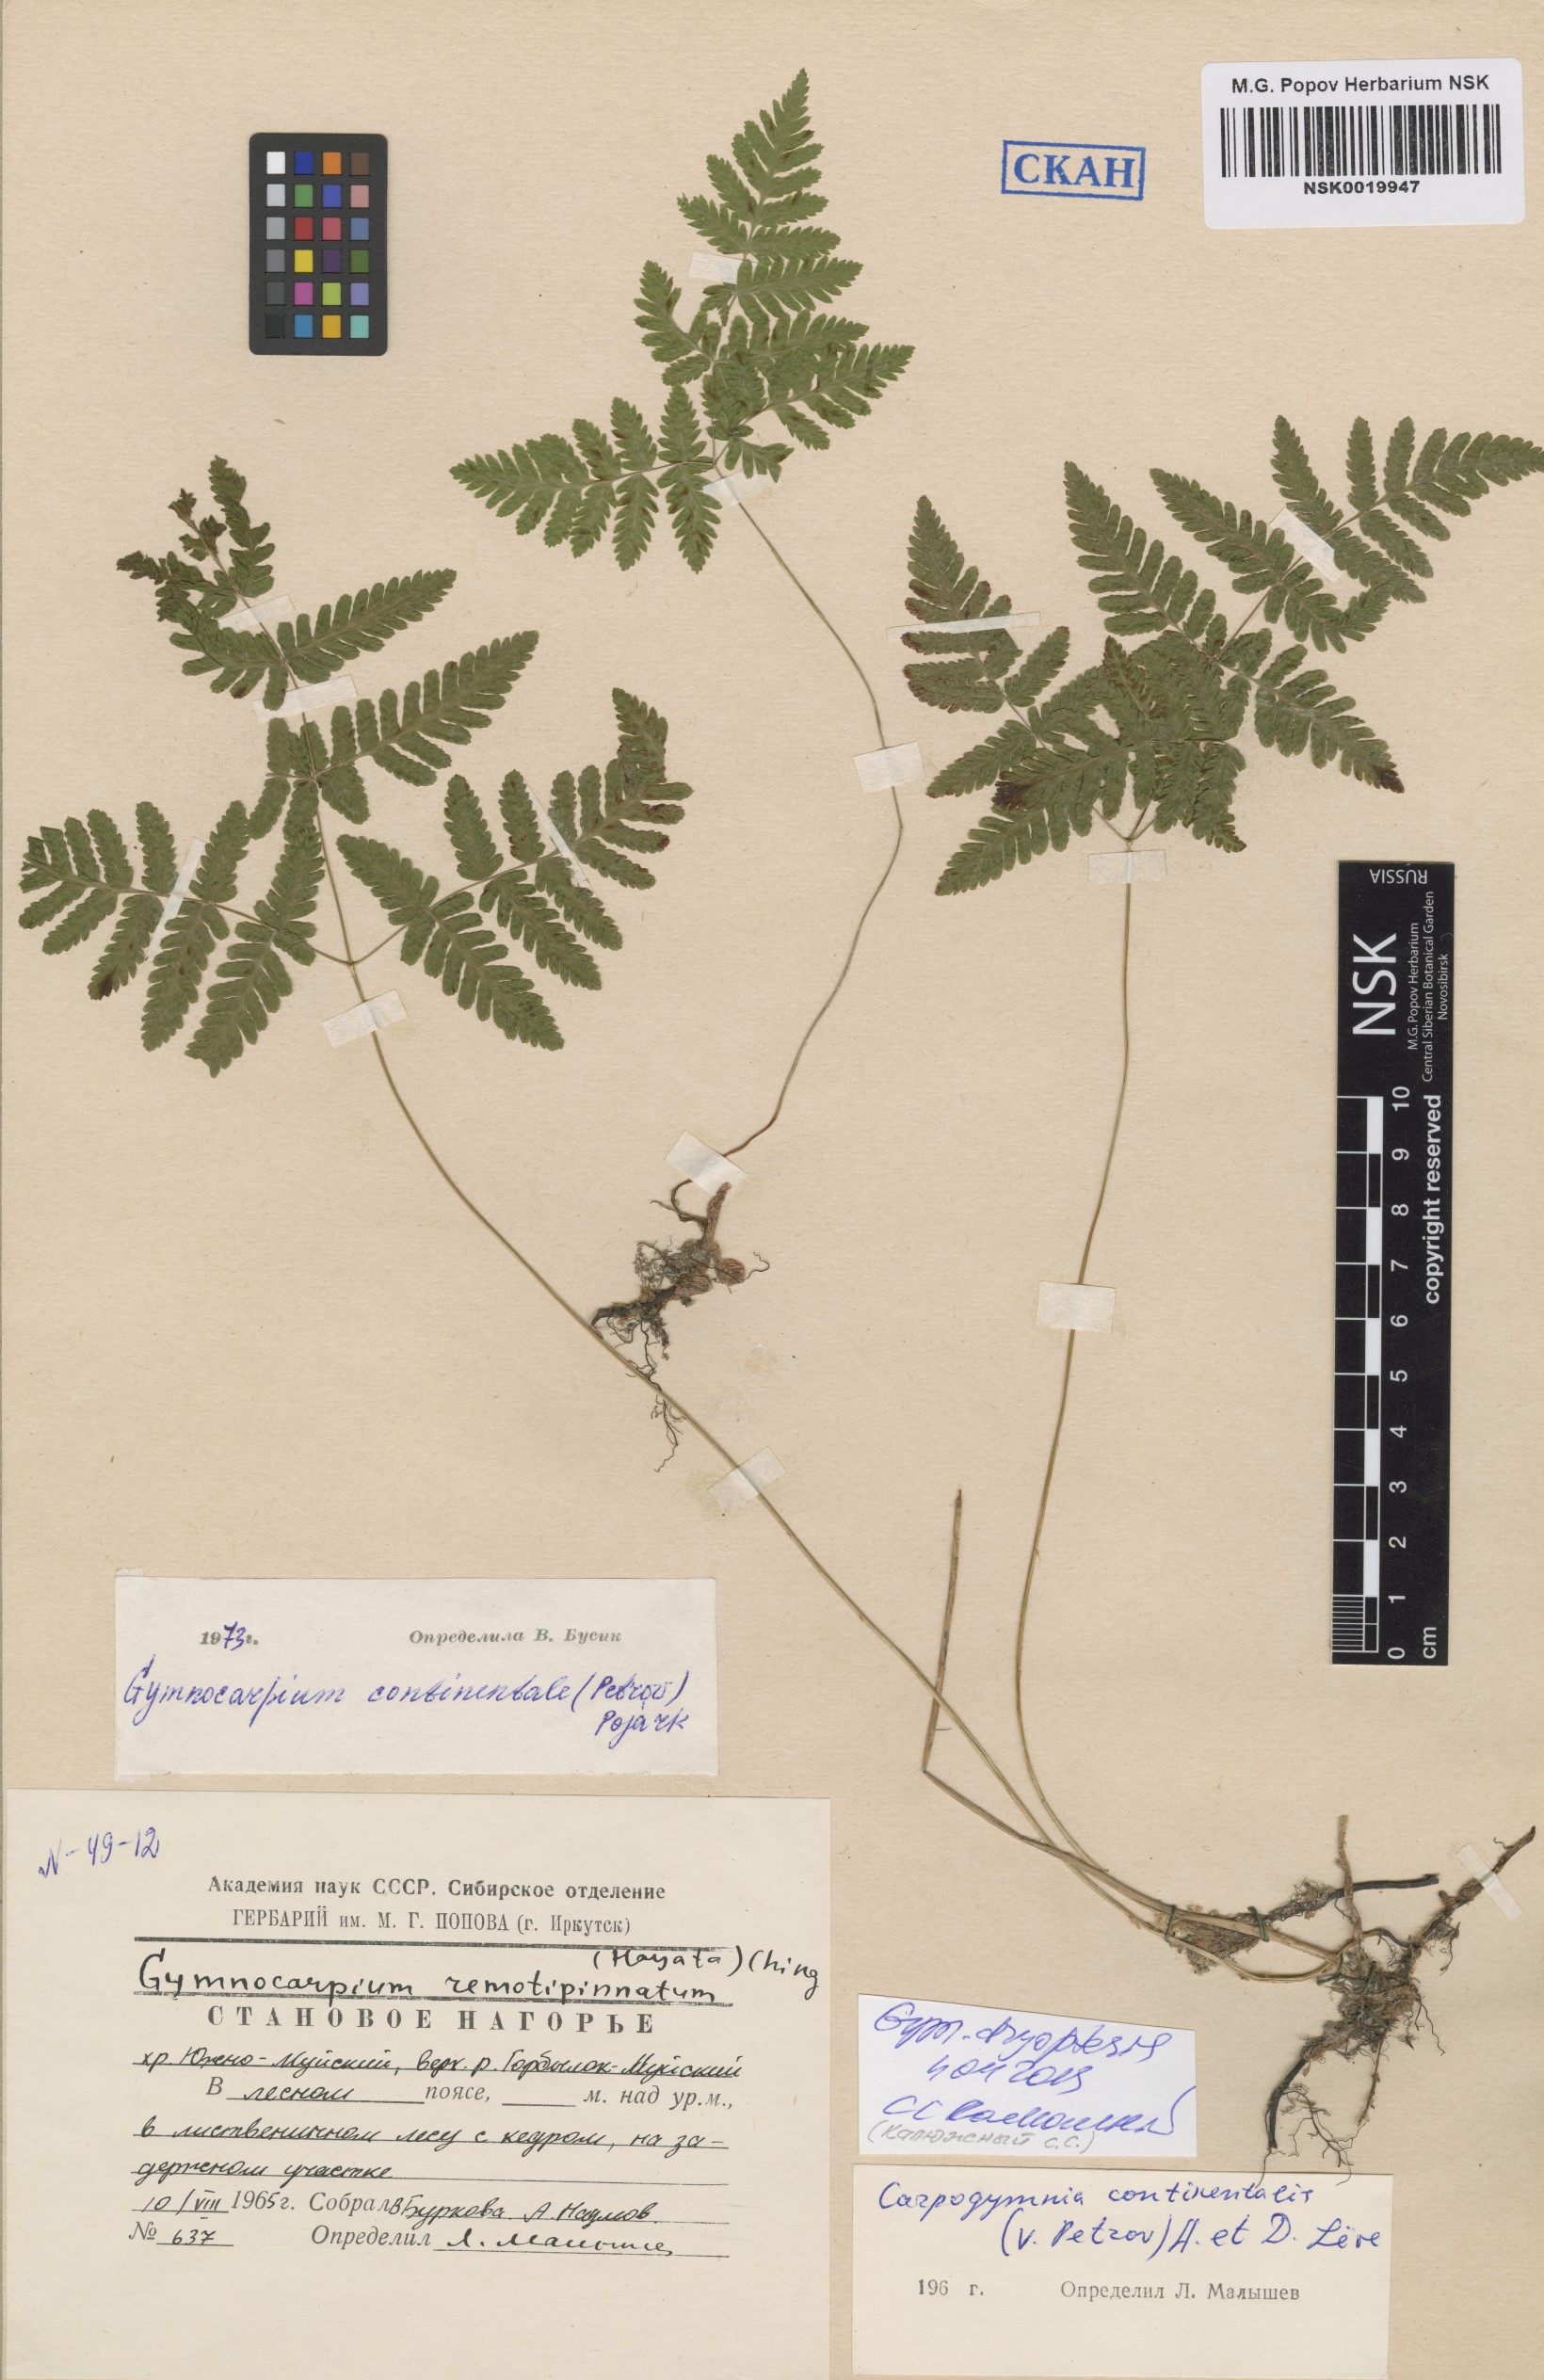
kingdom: Plantae
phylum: Tracheophyta
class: Polypodiopsida
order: Polypodiales
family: Cystopteridaceae
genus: Gymnocarpium
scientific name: Gymnocarpium continentale
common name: Asian oak fern
